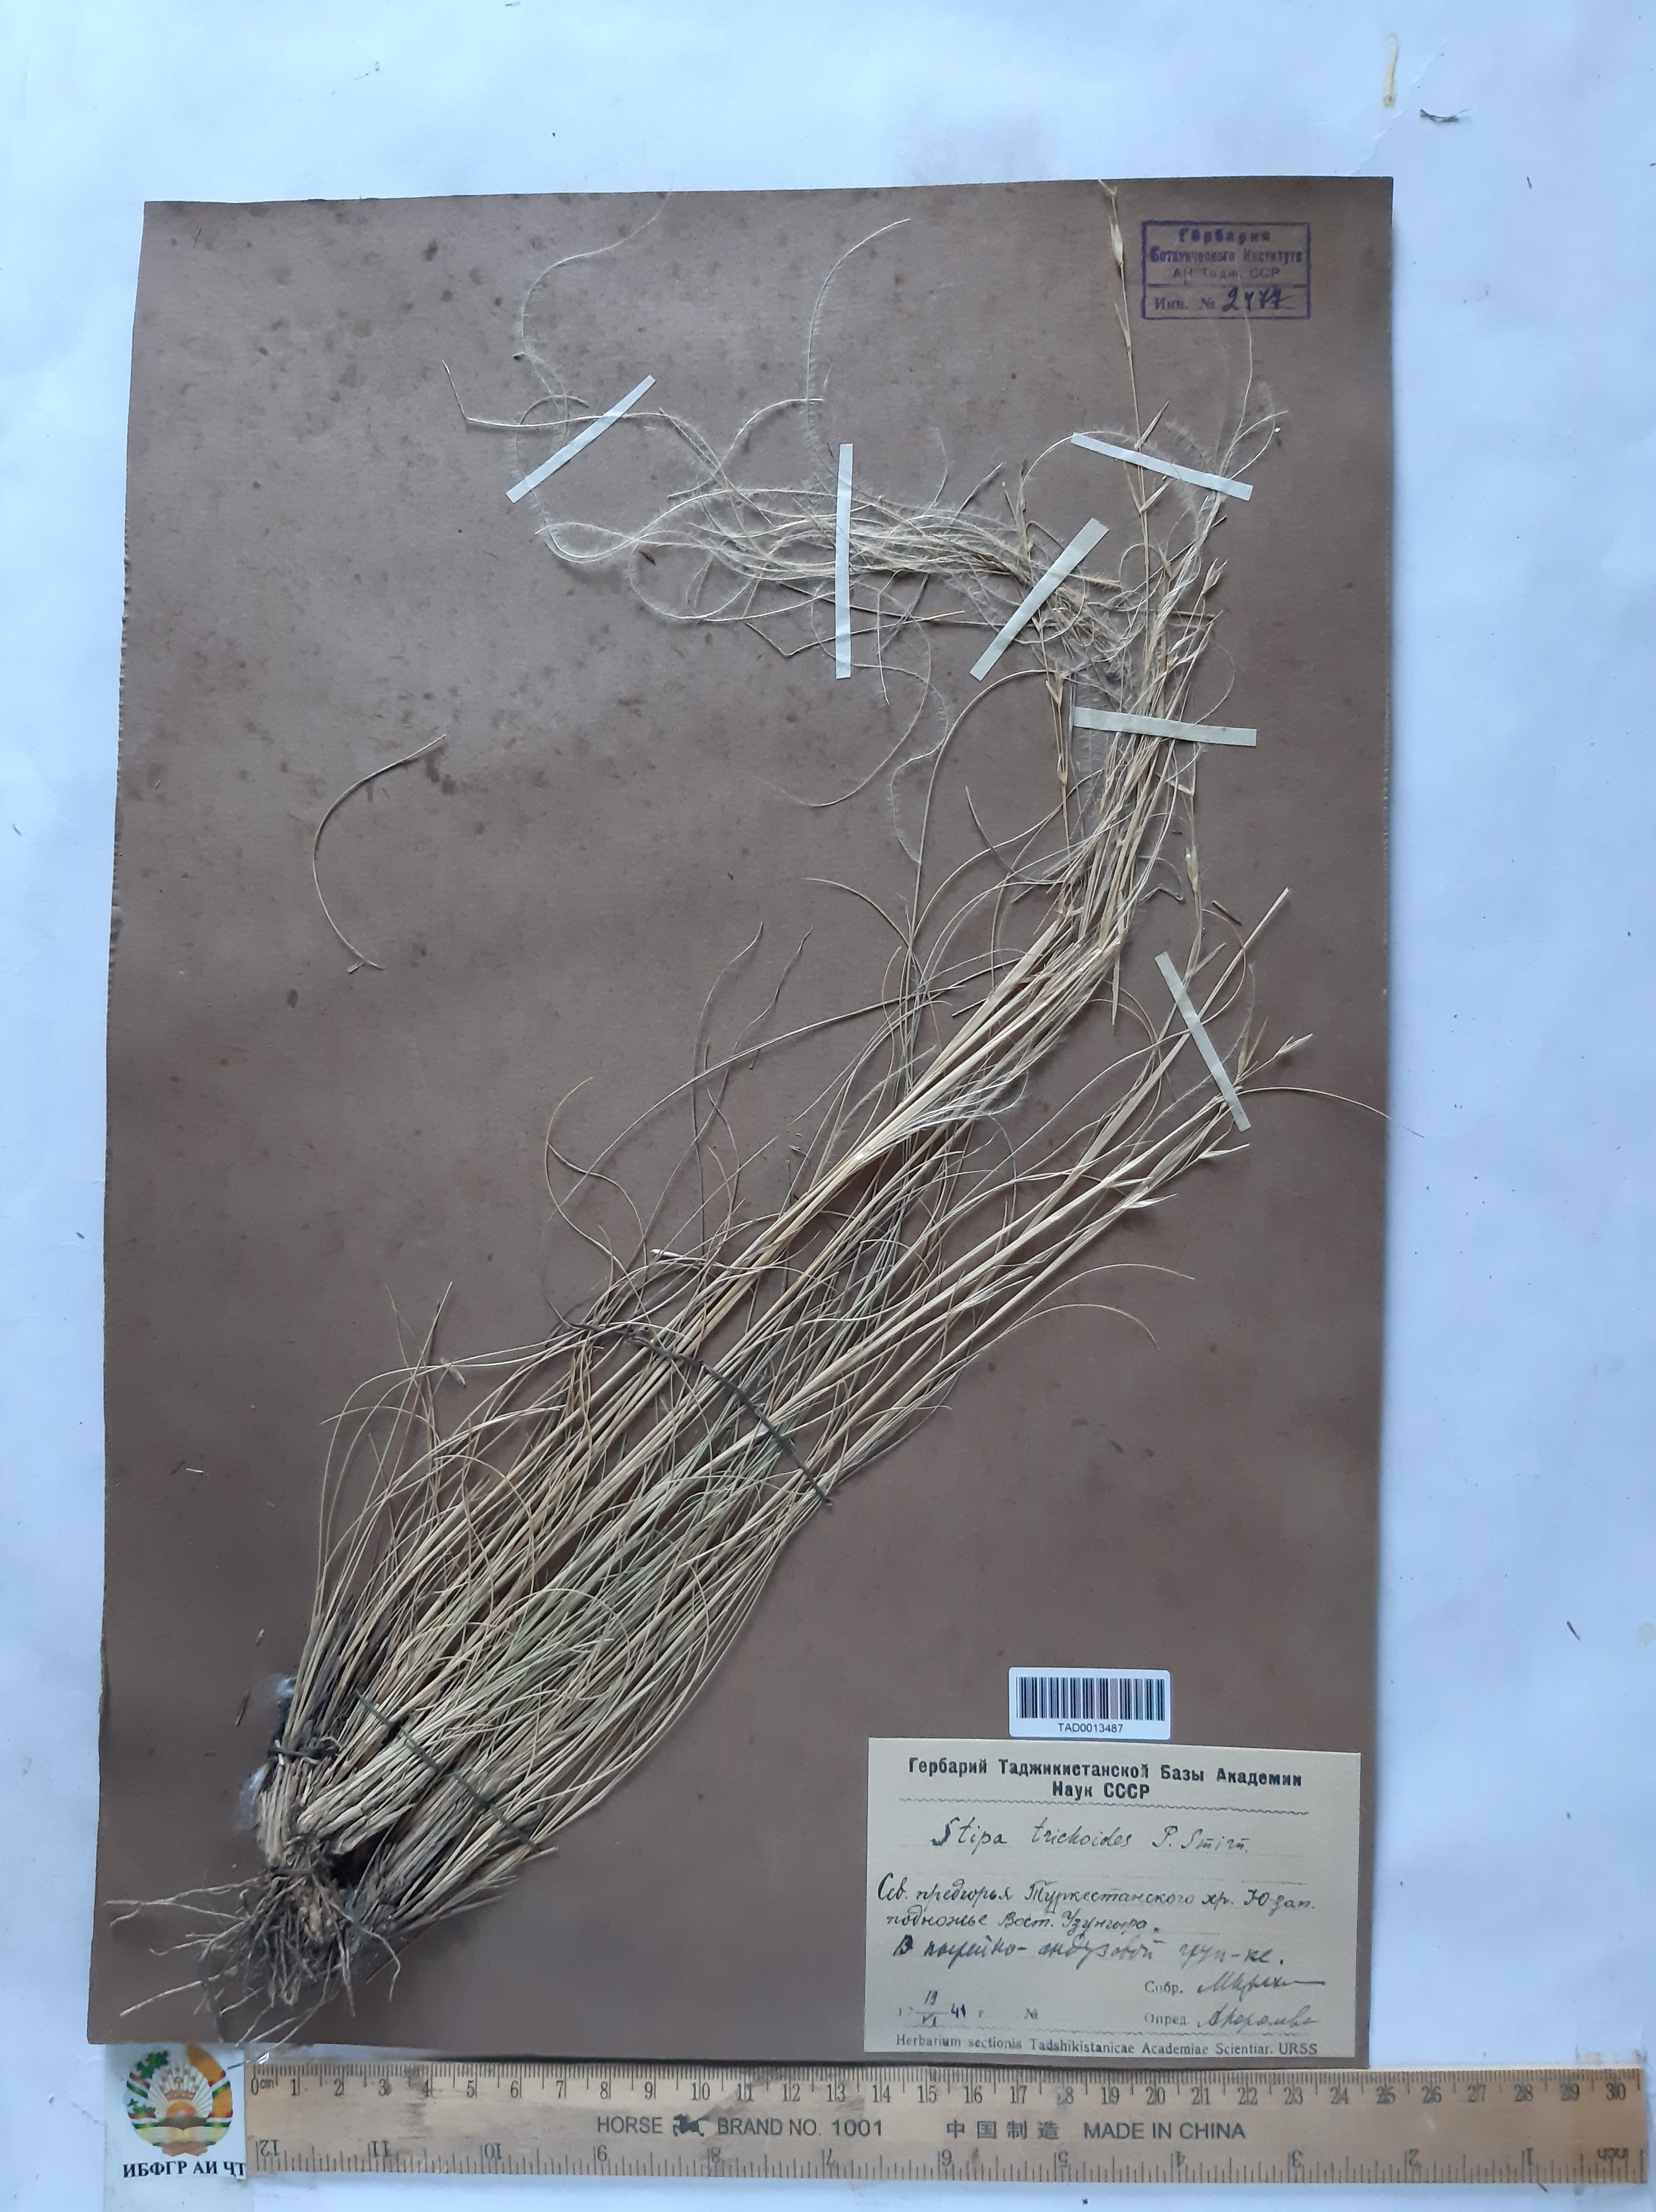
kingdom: Plantae
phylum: Tracheophyta
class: Liliopsida
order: Poales
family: Poaceae
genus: Stipa
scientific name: Stipa trichoides
